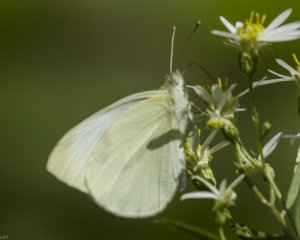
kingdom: Animalia
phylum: Arthropoda
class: Insecta
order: Lepidoptera
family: Pieridae
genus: Pieris
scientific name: Pieris rapae
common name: Cabbage White
